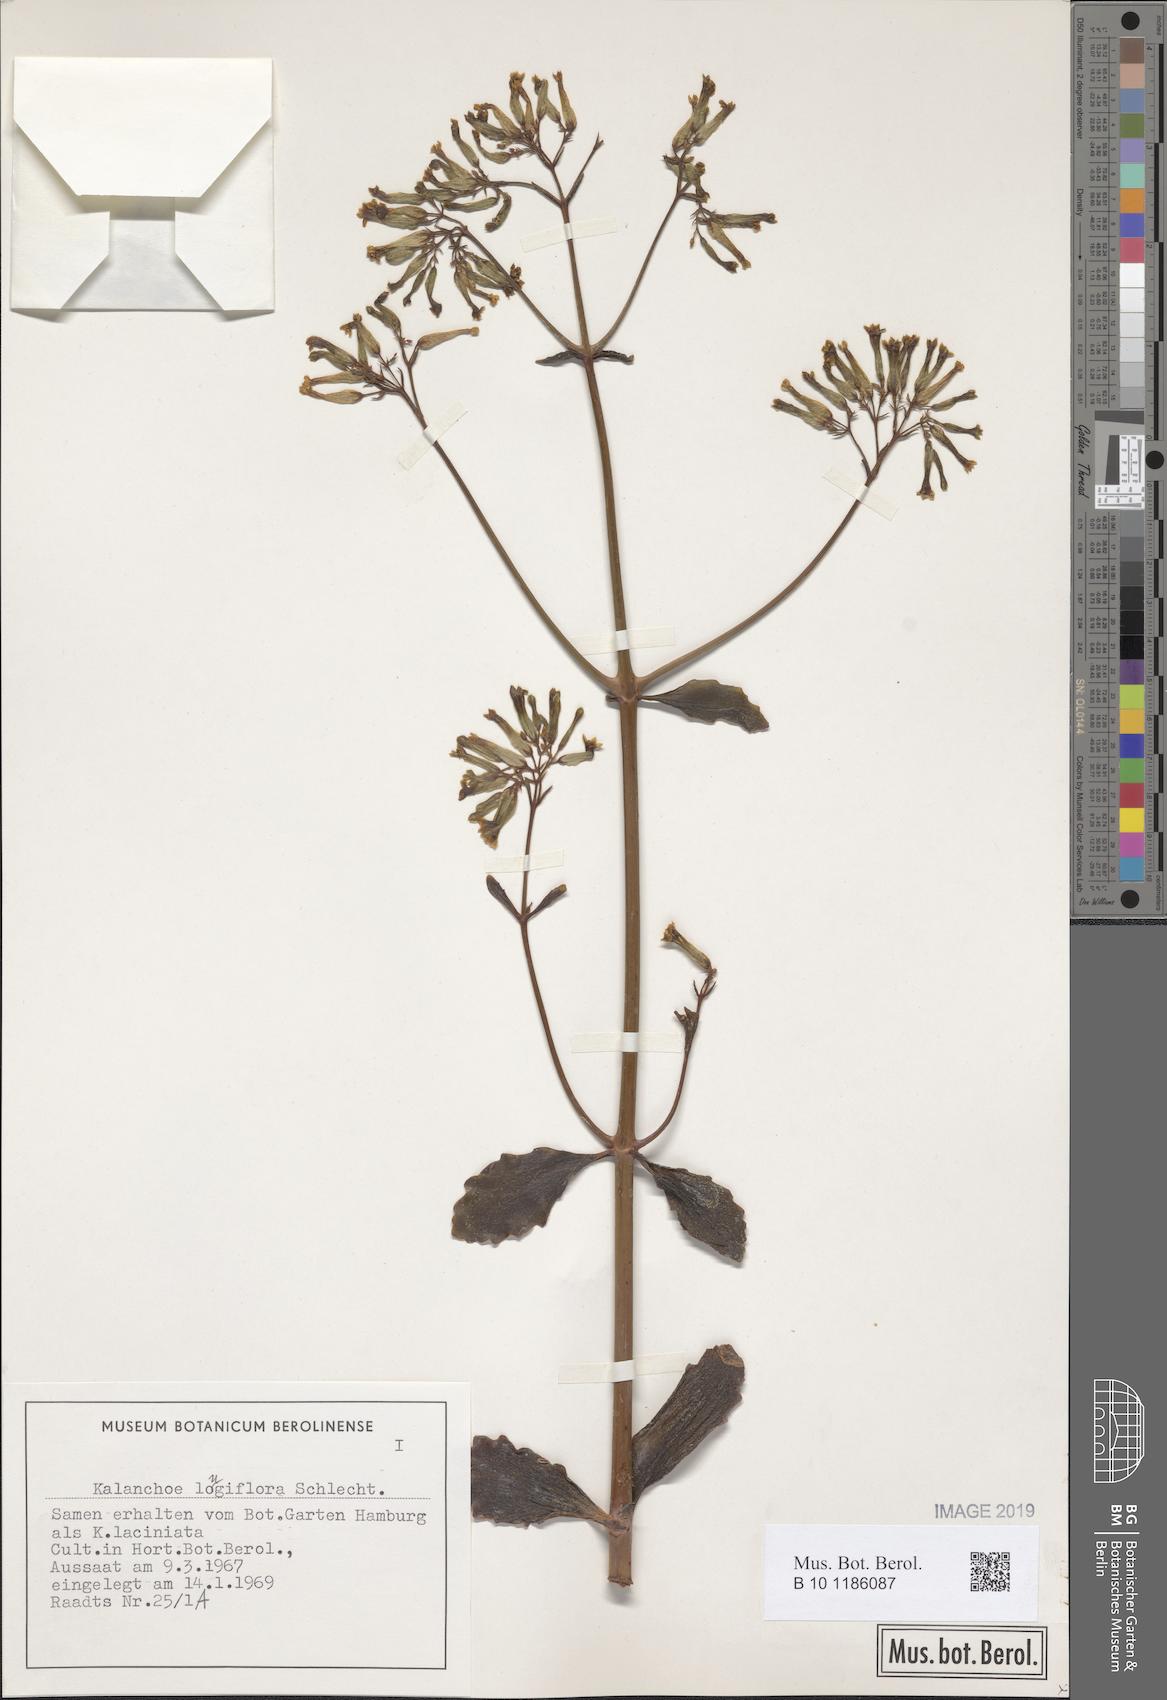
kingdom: Plantae
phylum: Tracheophyta
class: Magnoliopsida
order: Saxifragales
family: Crassulaceae
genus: Kalanchoe
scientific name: Kalanchoe longiflora
